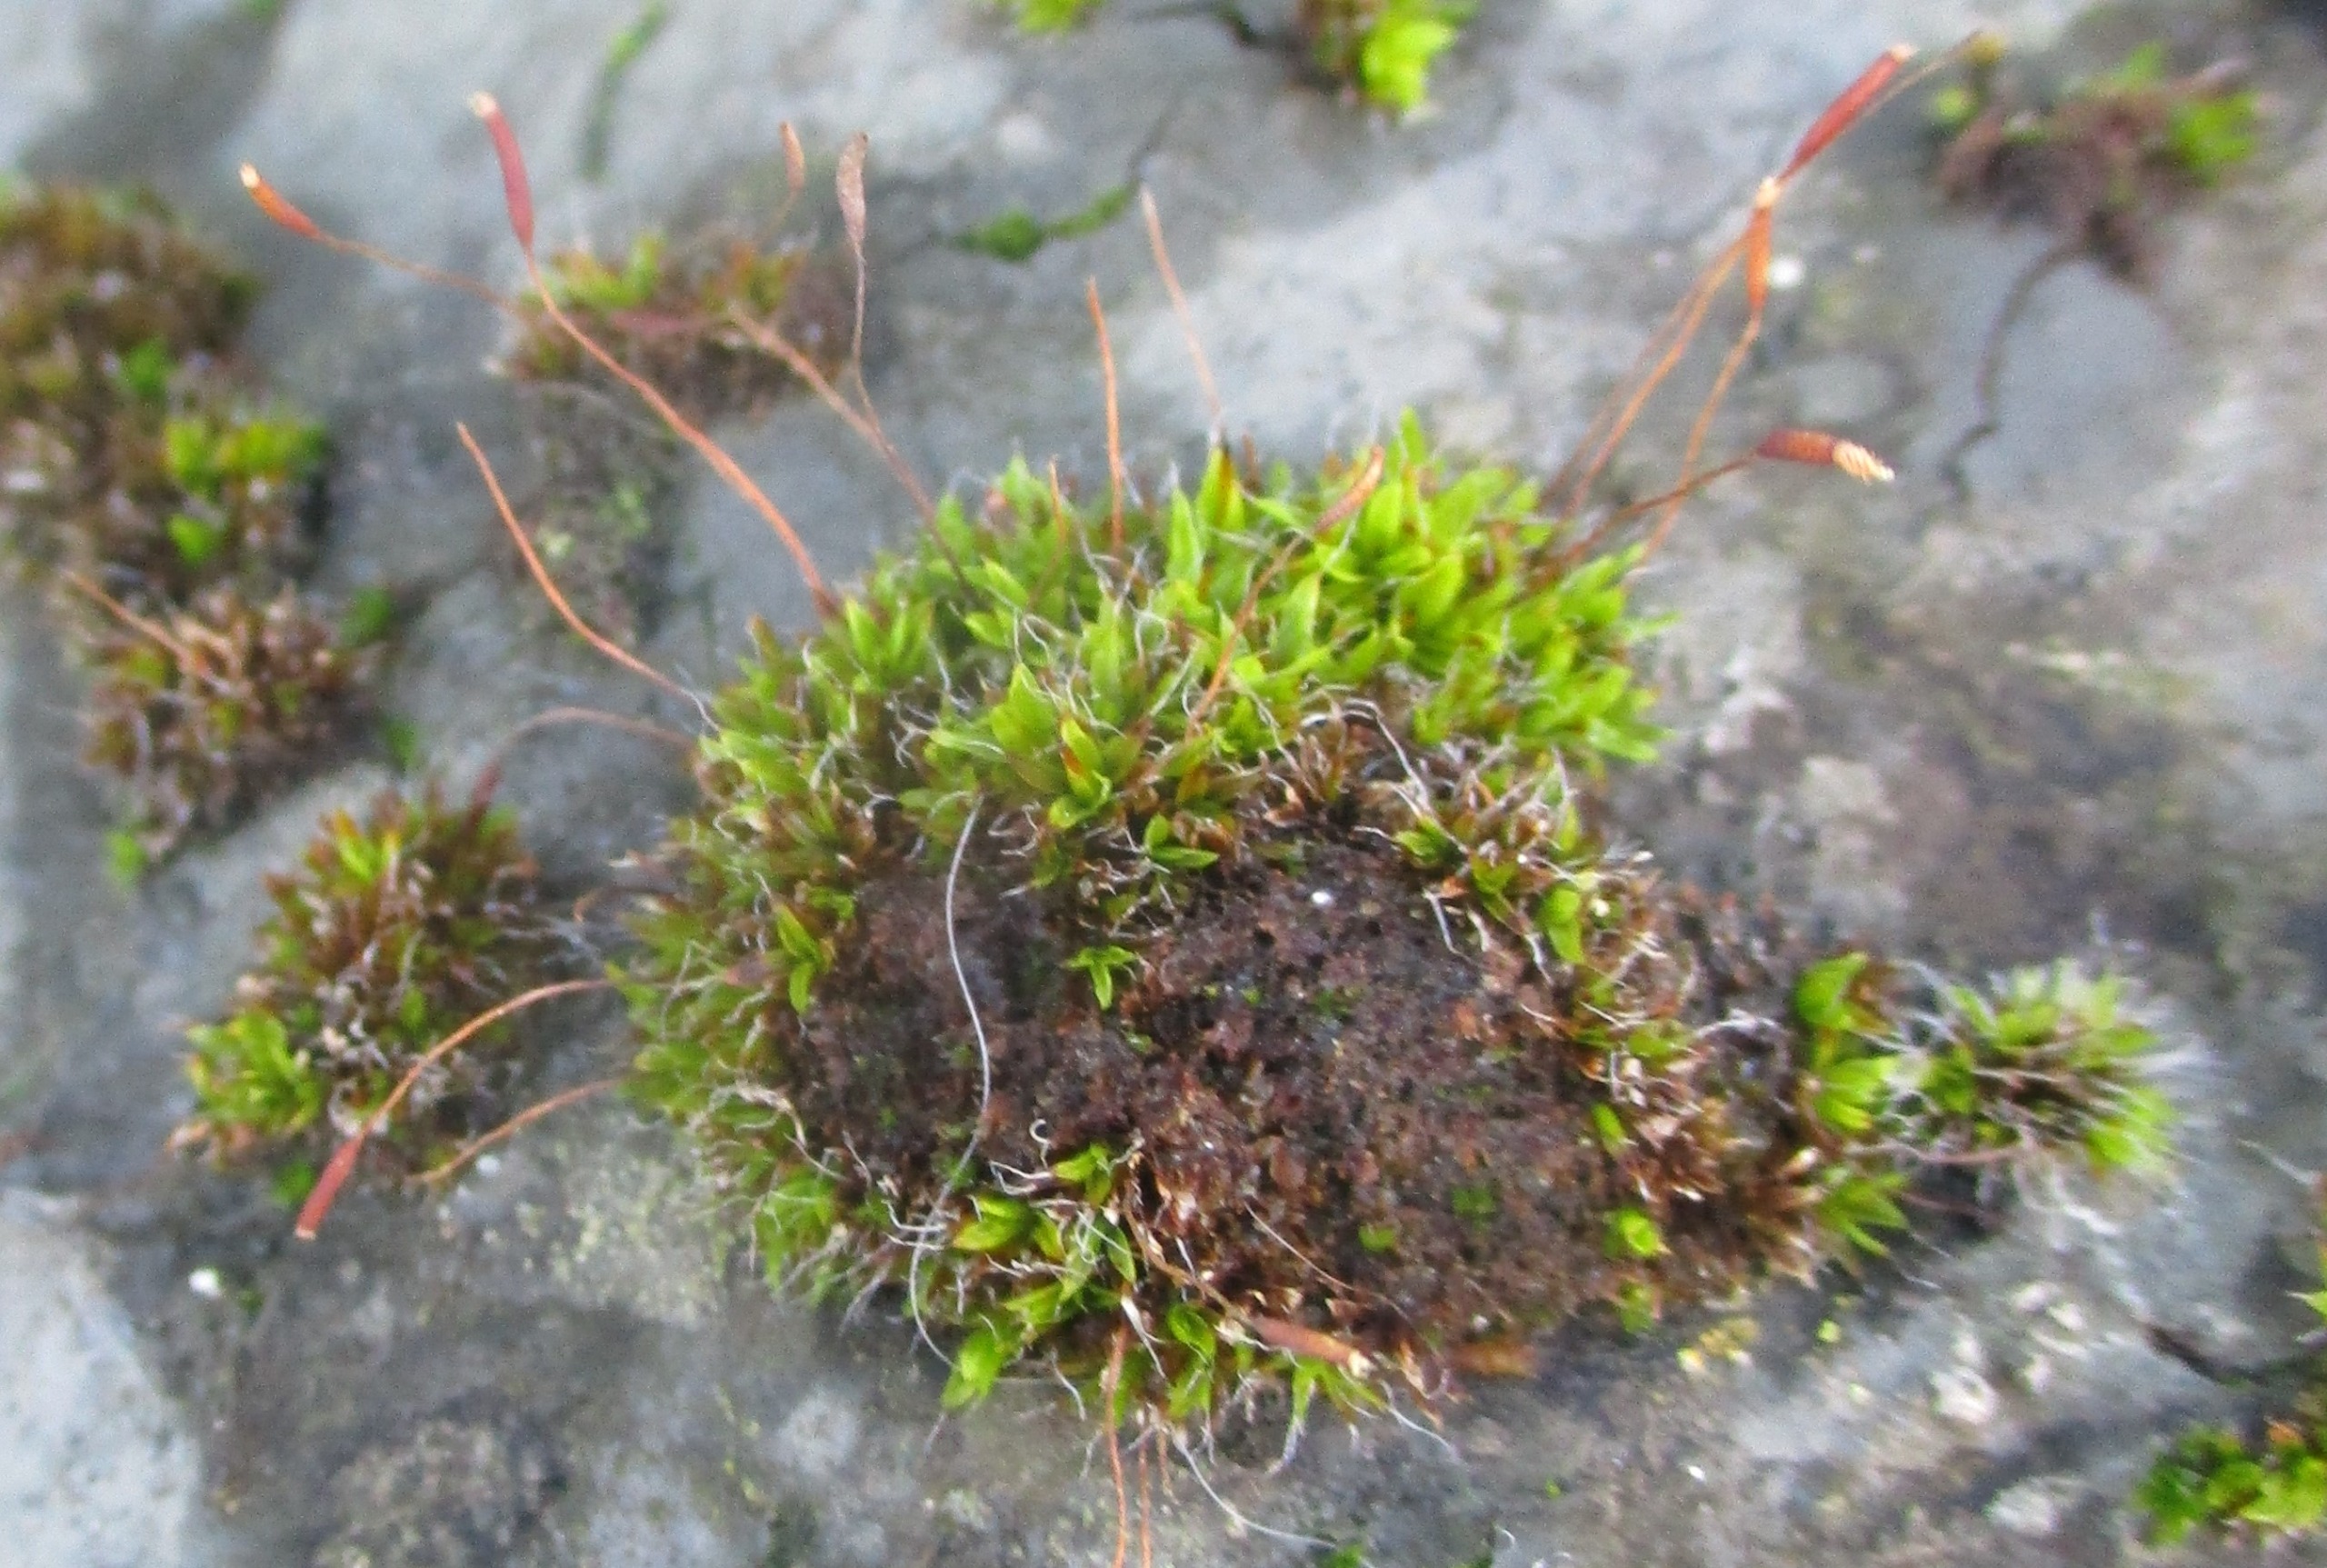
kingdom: Plantae
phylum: Bryophyta
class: Bryopsida
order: Pottiales
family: Pottiaceae
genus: Tortula
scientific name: Tortula muralis
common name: Mur-snotand
